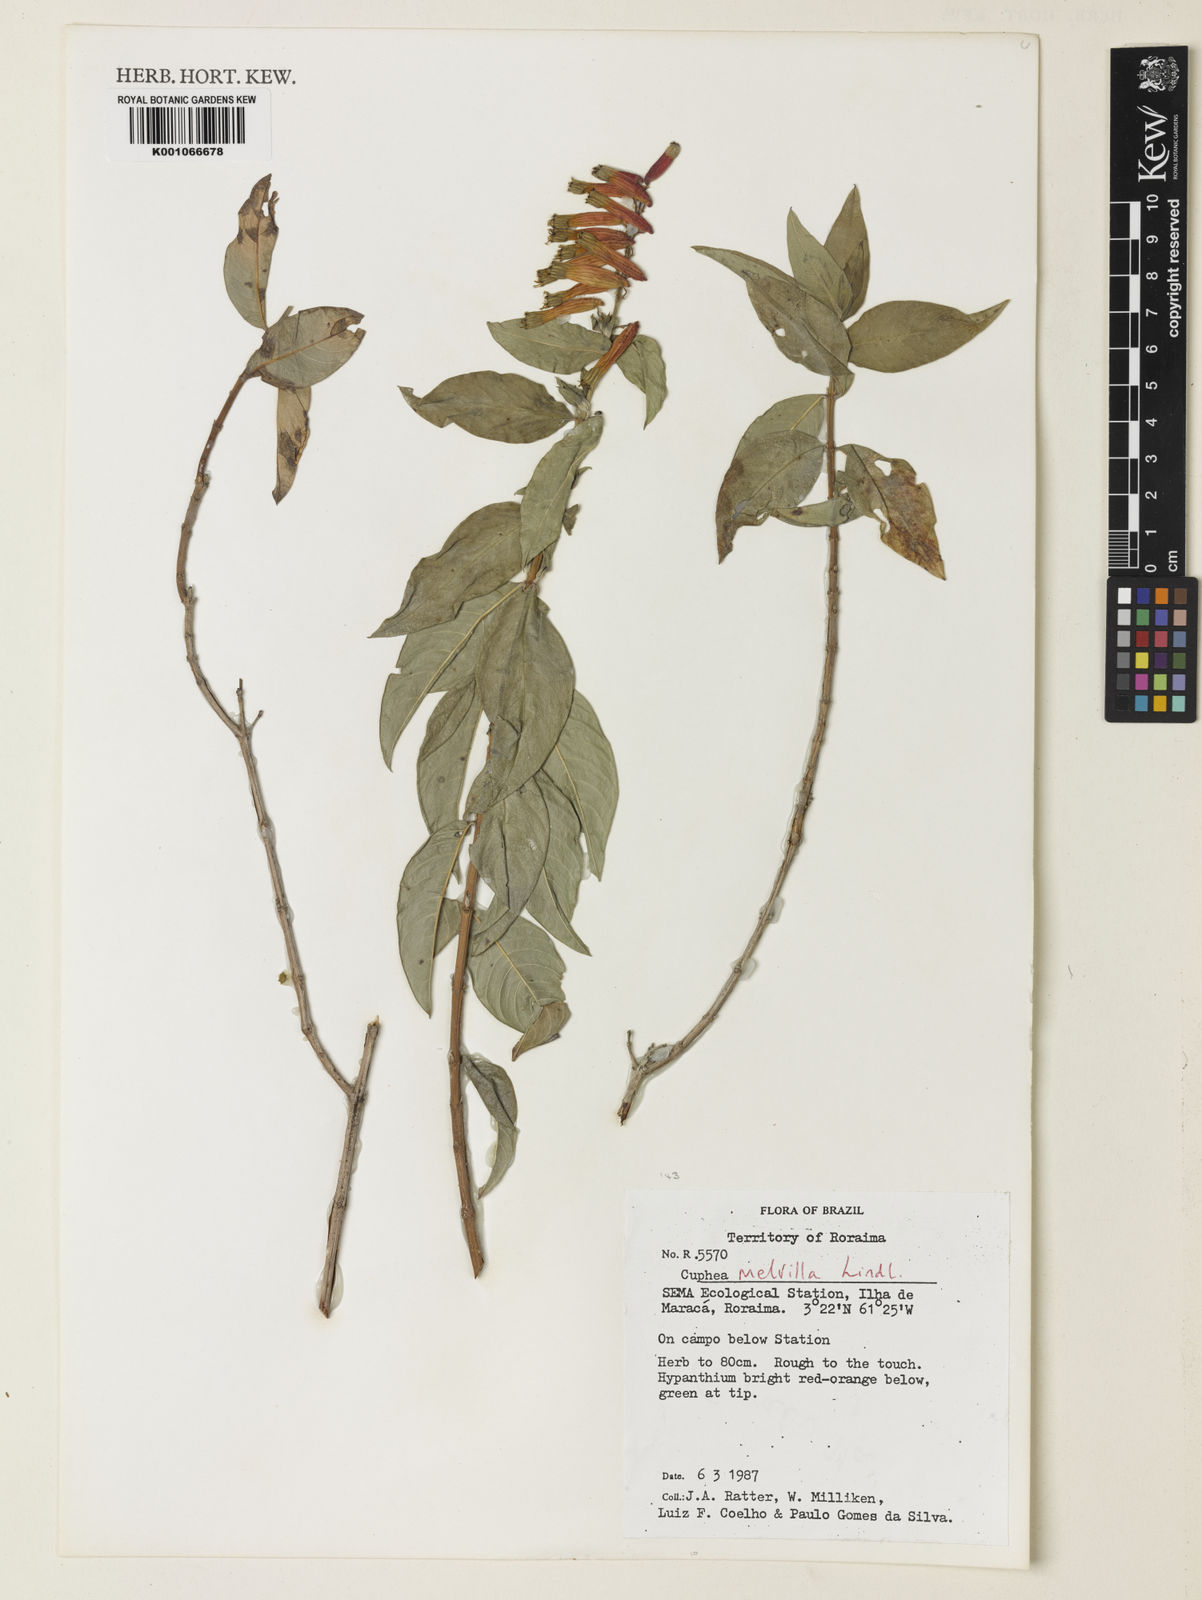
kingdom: Plantae
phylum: Tracheophyta
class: Magnoliopsida
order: Myrtales
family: Lythraceae
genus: Cuphea
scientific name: Cuphea melvilla
